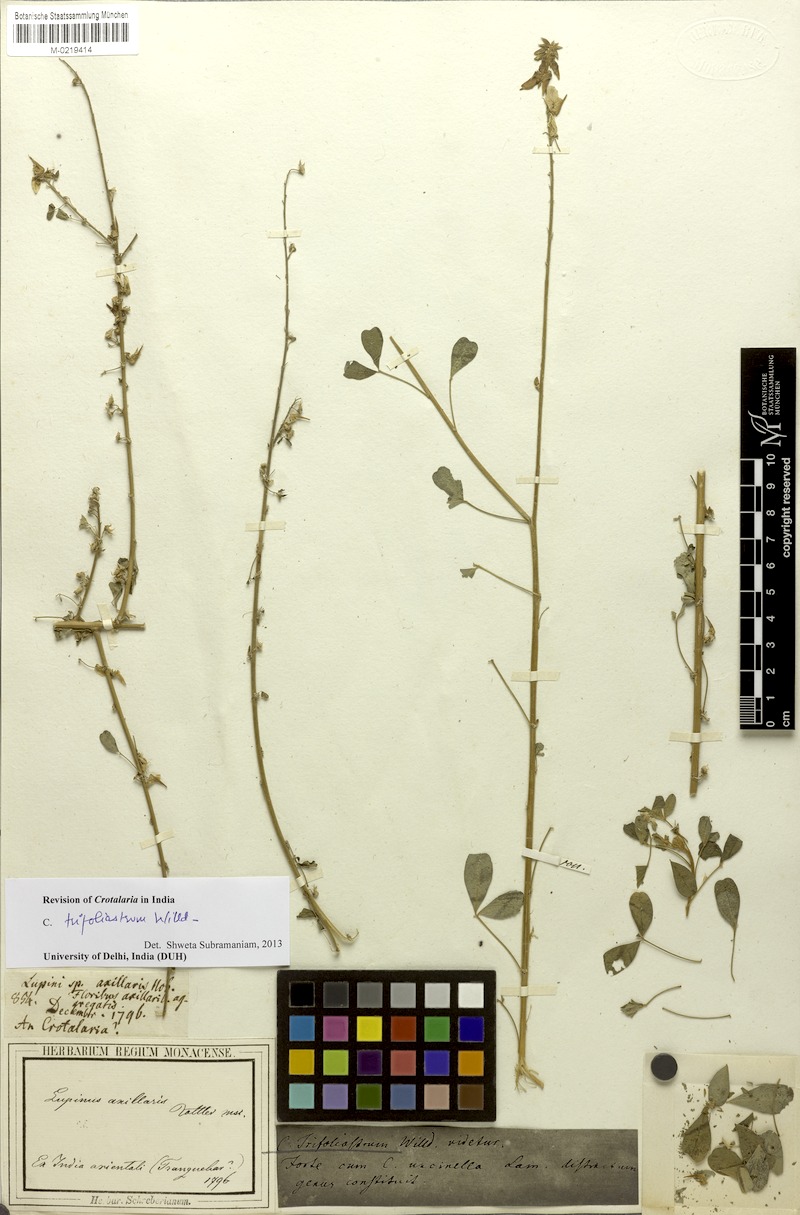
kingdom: Plantae
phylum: Tracheophyta
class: Magnoliopsida
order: Fabales
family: Fabaceae
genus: Crotalaria
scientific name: Crotalaria trifoliastrum
